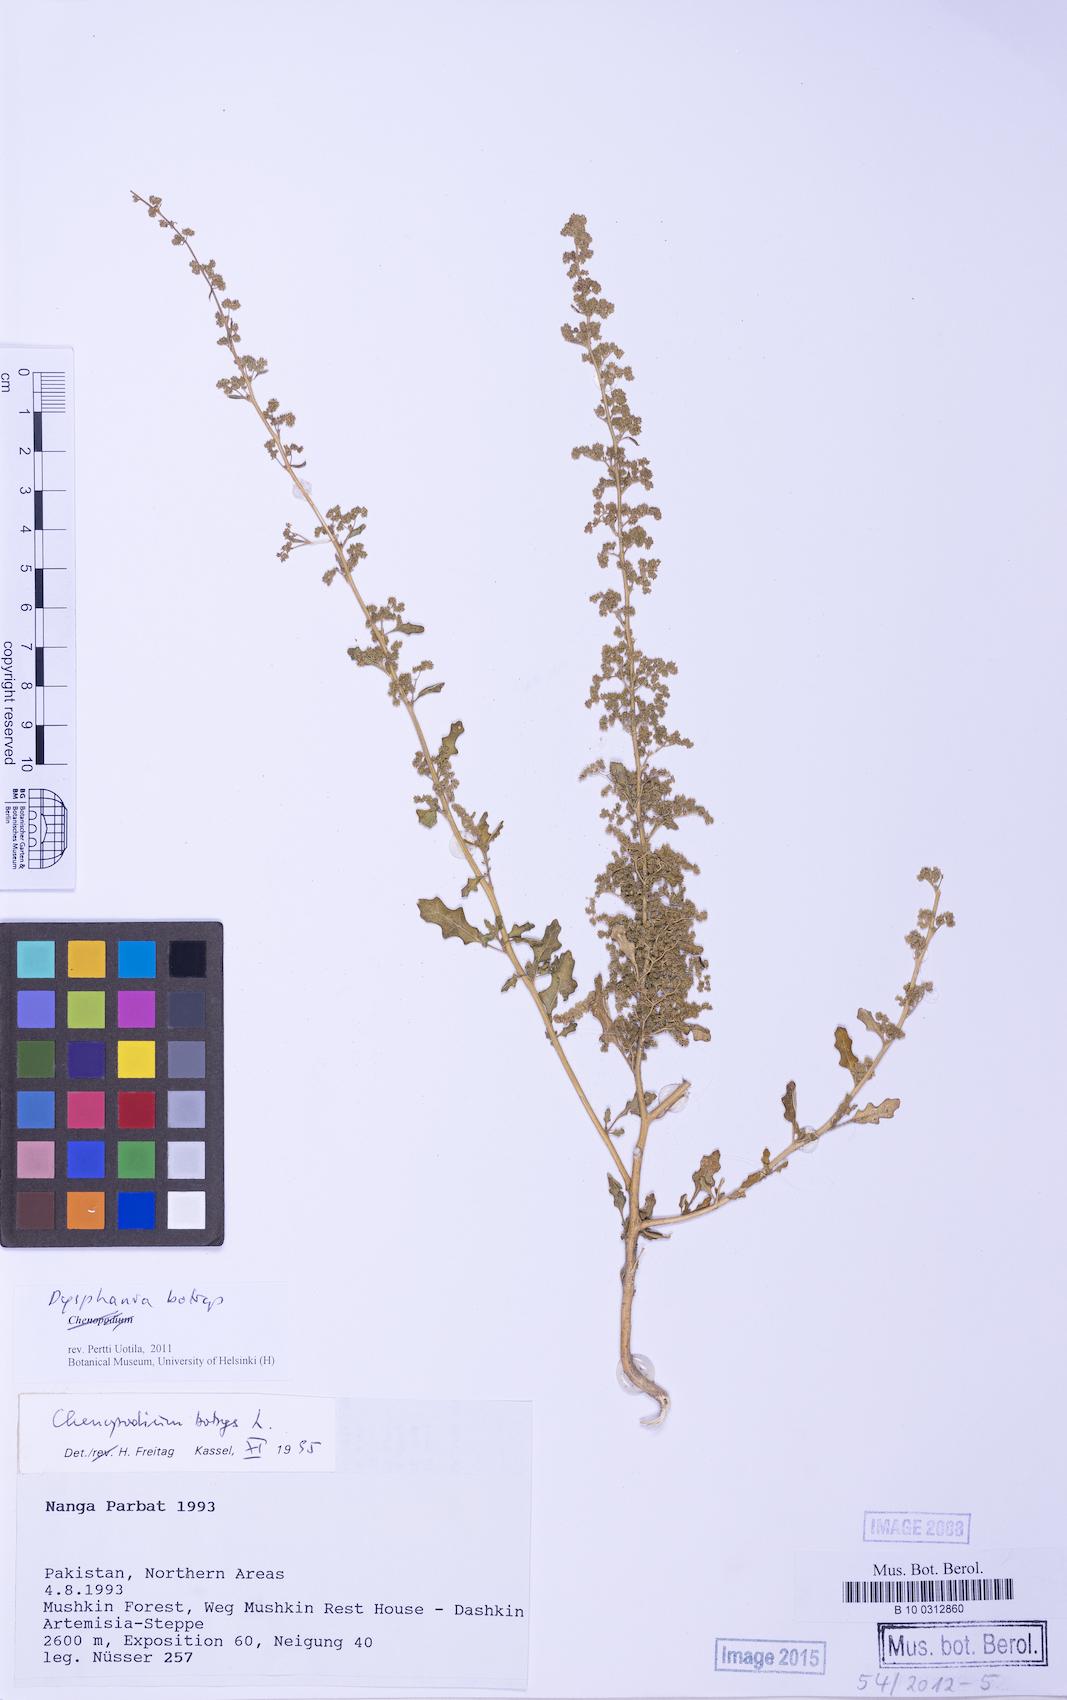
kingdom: Plantae
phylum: Tracheophyta
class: Magnoliopsida
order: Caryophyllales
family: Amaranthaceae
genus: Dysphania
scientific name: Dysphania botrys
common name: Feather-geranium
